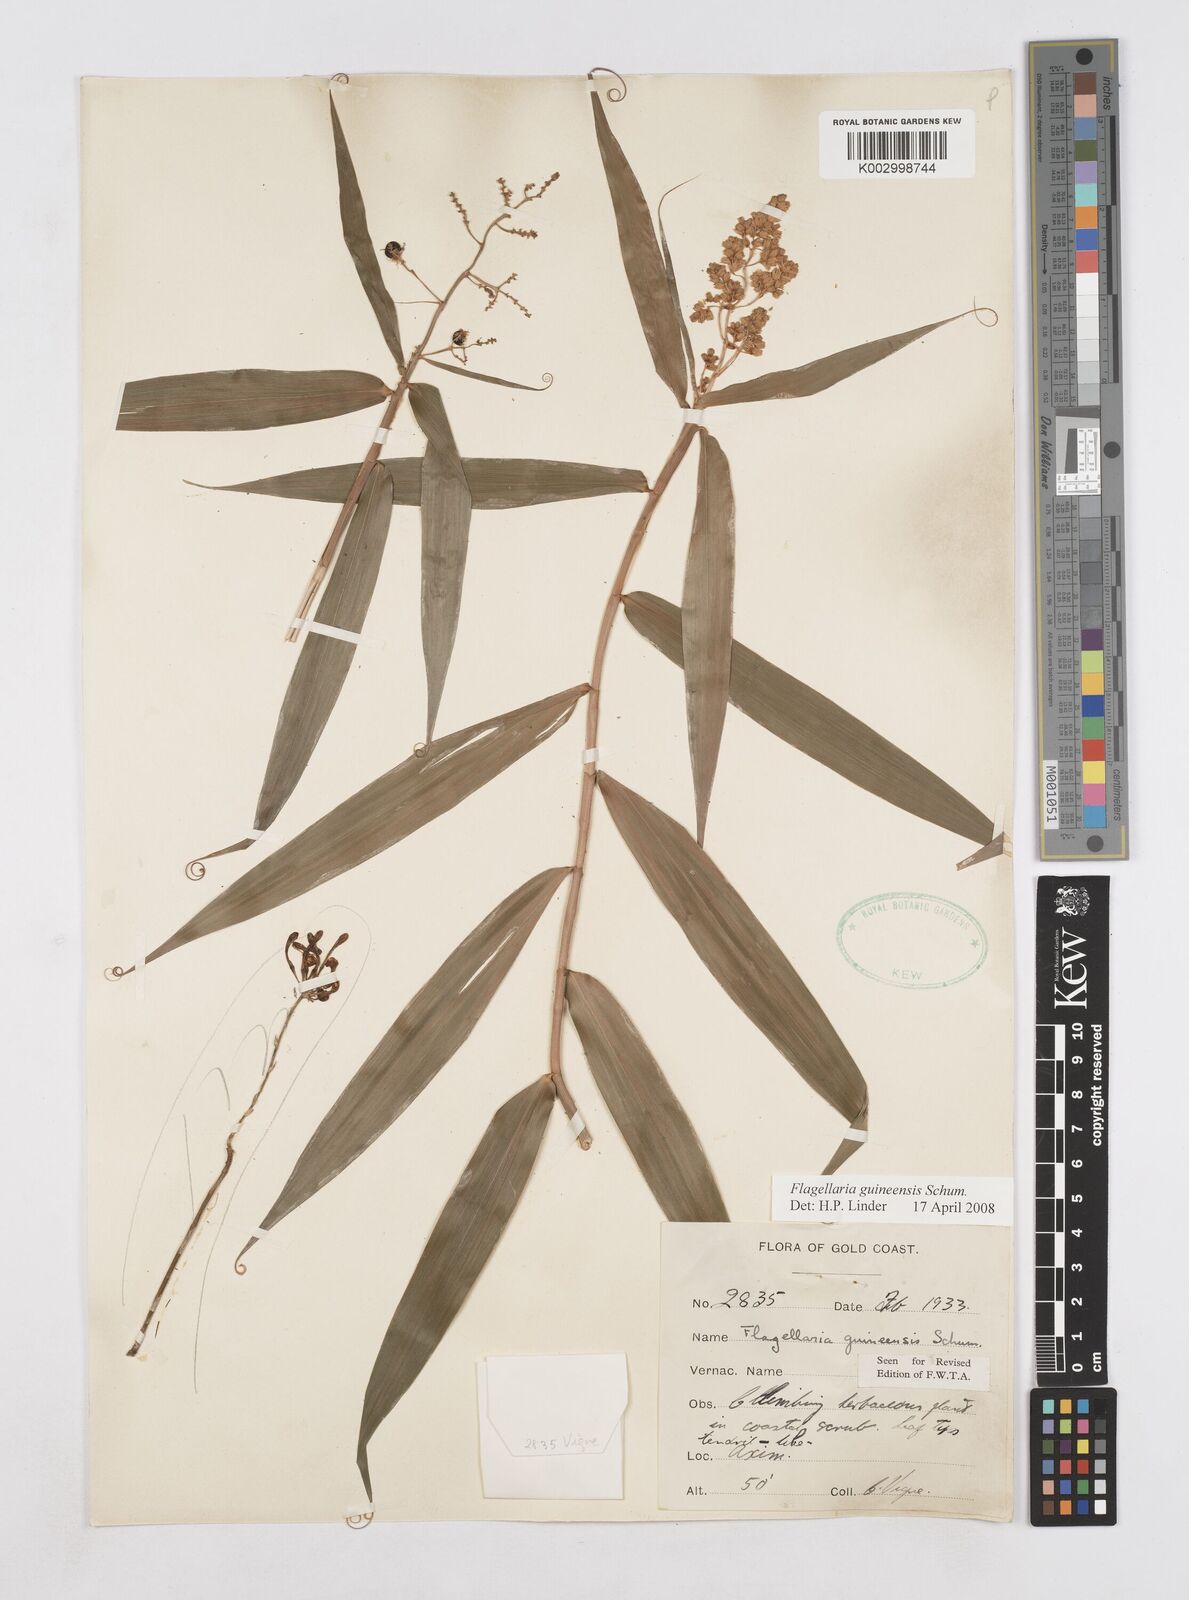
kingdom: Plantae
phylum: Tracheophyta
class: Liliopsida
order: Poales
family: Flagellariaceae
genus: Flagellaria
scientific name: Flagellaria guineensis
